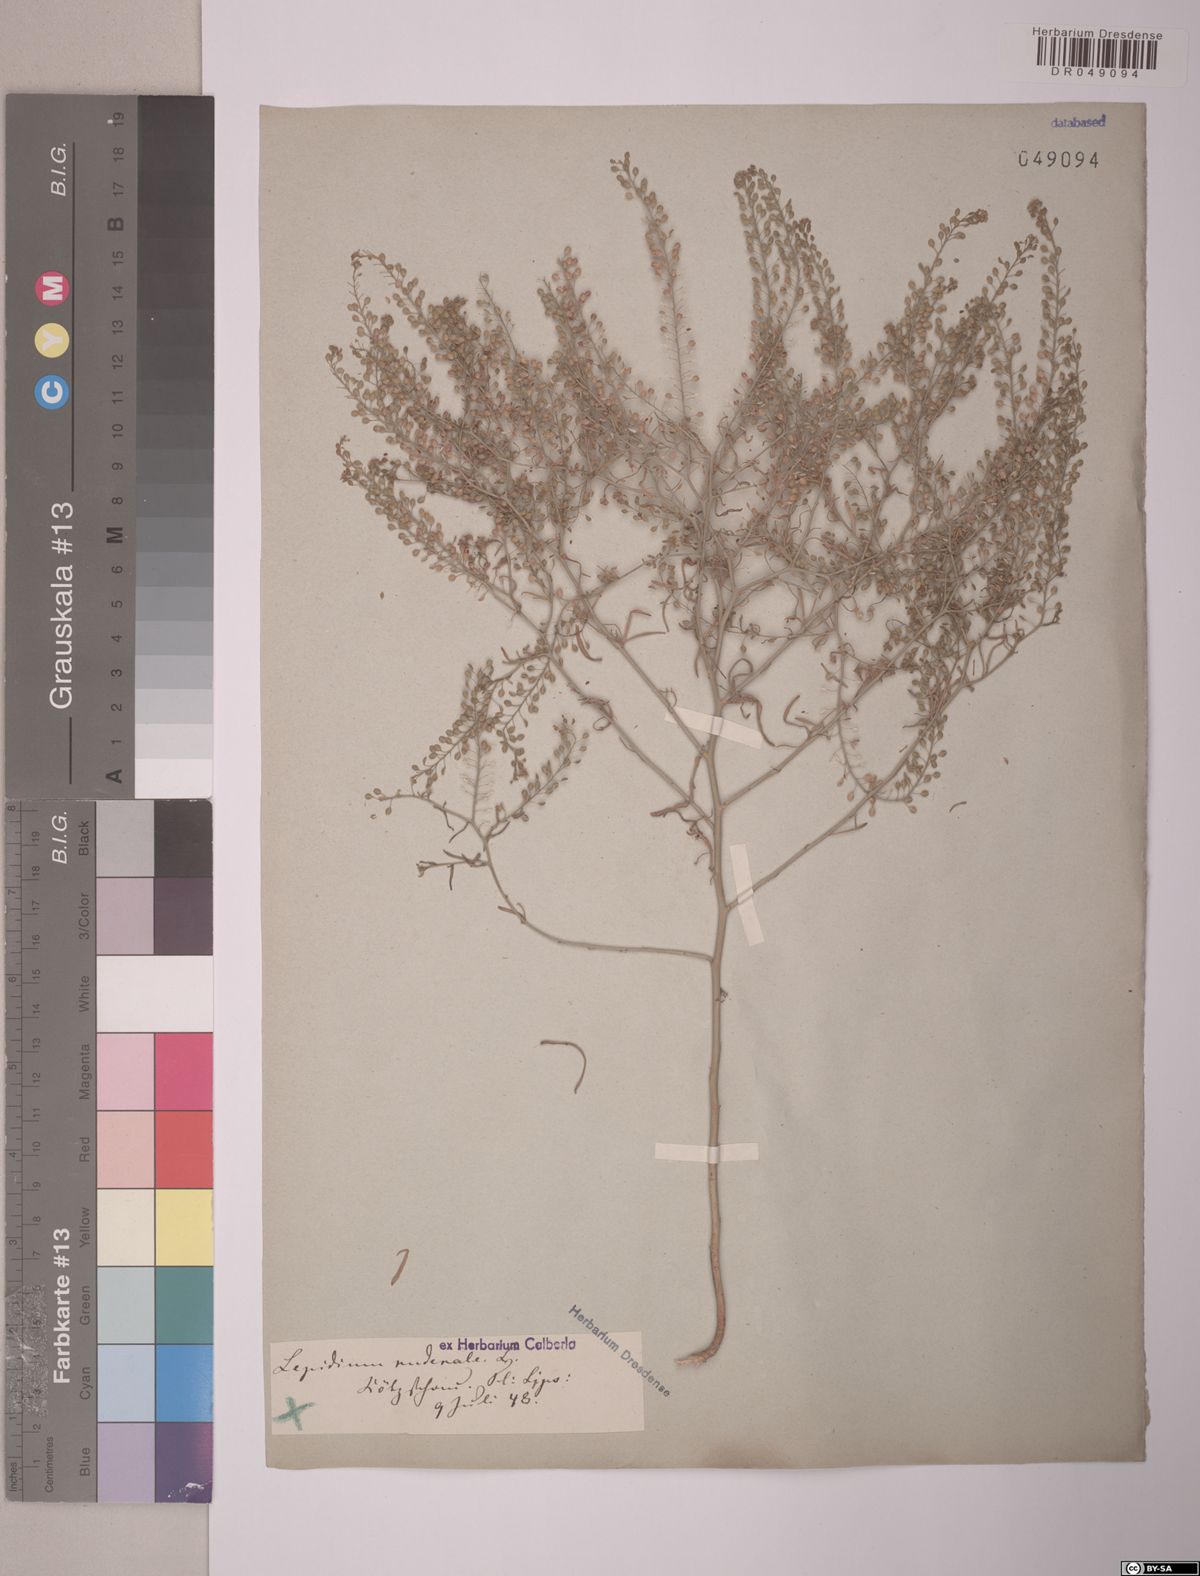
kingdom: Plantae
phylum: Tracheophyta
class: Magnoliopsida
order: Brassicales
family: Brassicaceae
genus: Lepidium
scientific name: Lepidium ruderale
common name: Narrow-leaved pepperwort
